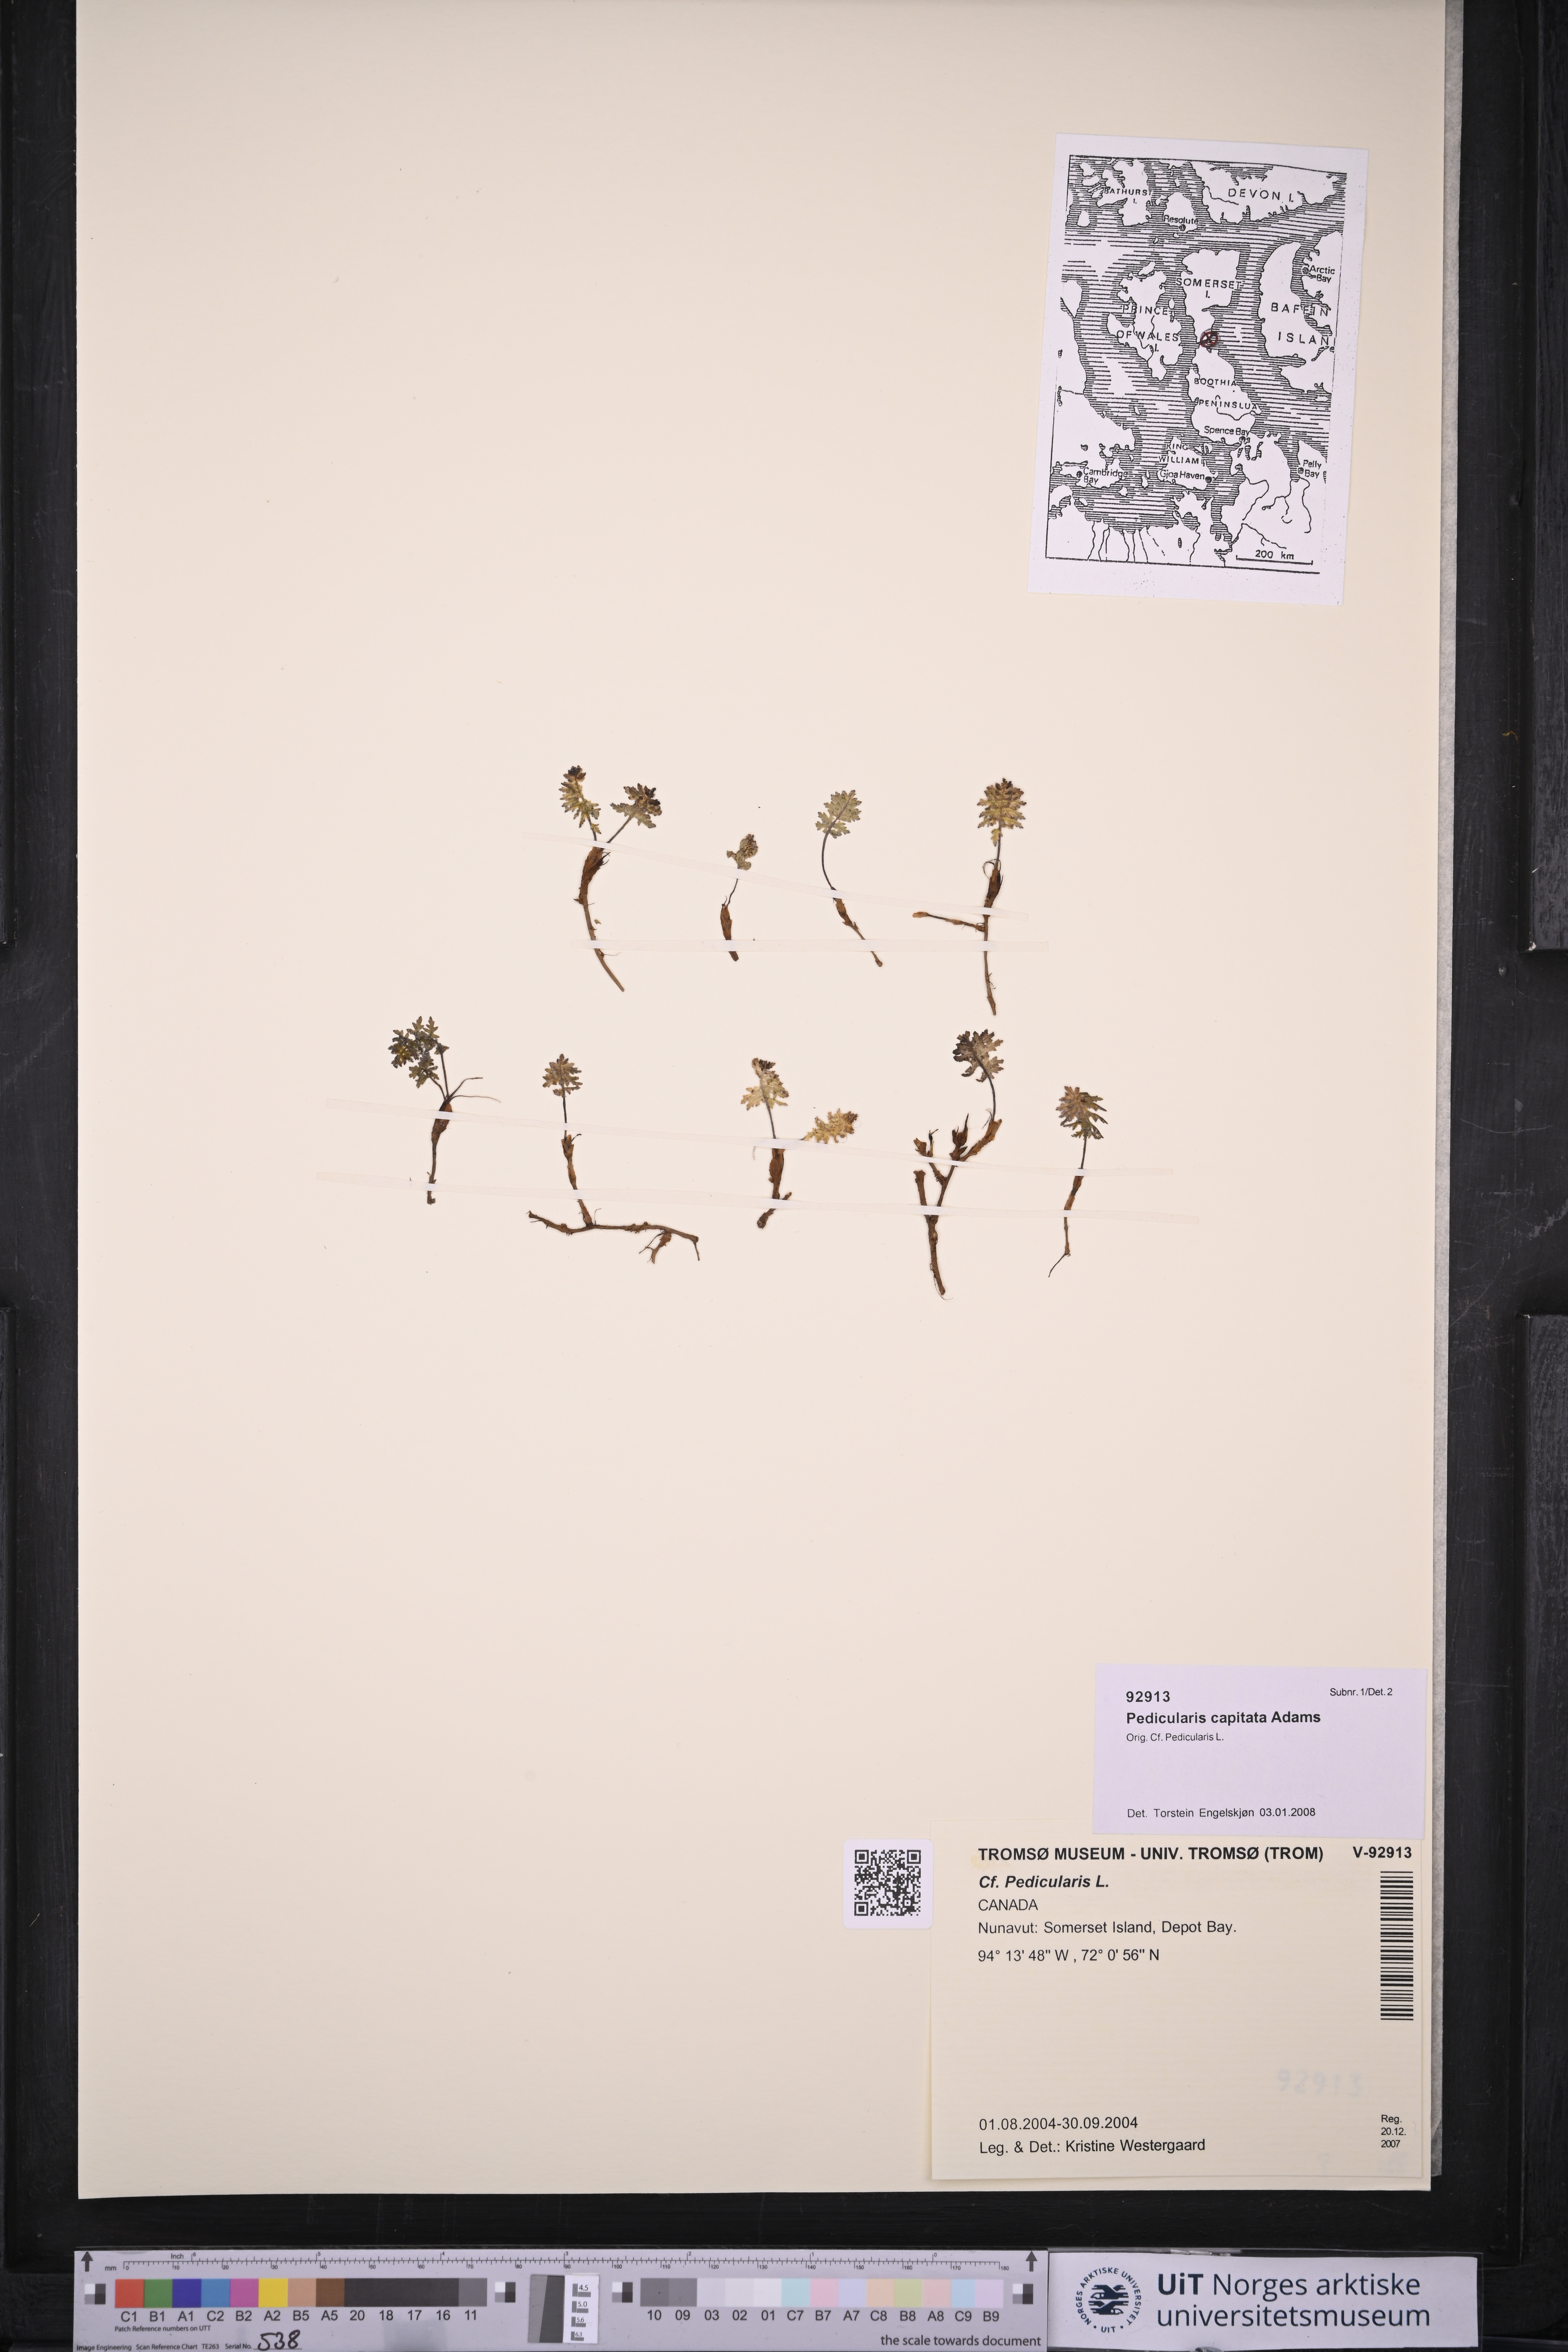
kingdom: Plantae
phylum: Tracheophyta
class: Magnoliopsida
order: Lamiales
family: Orobanchaceae
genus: Pedicularis
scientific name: Pedicularis capitata
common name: Capitate lousewort
